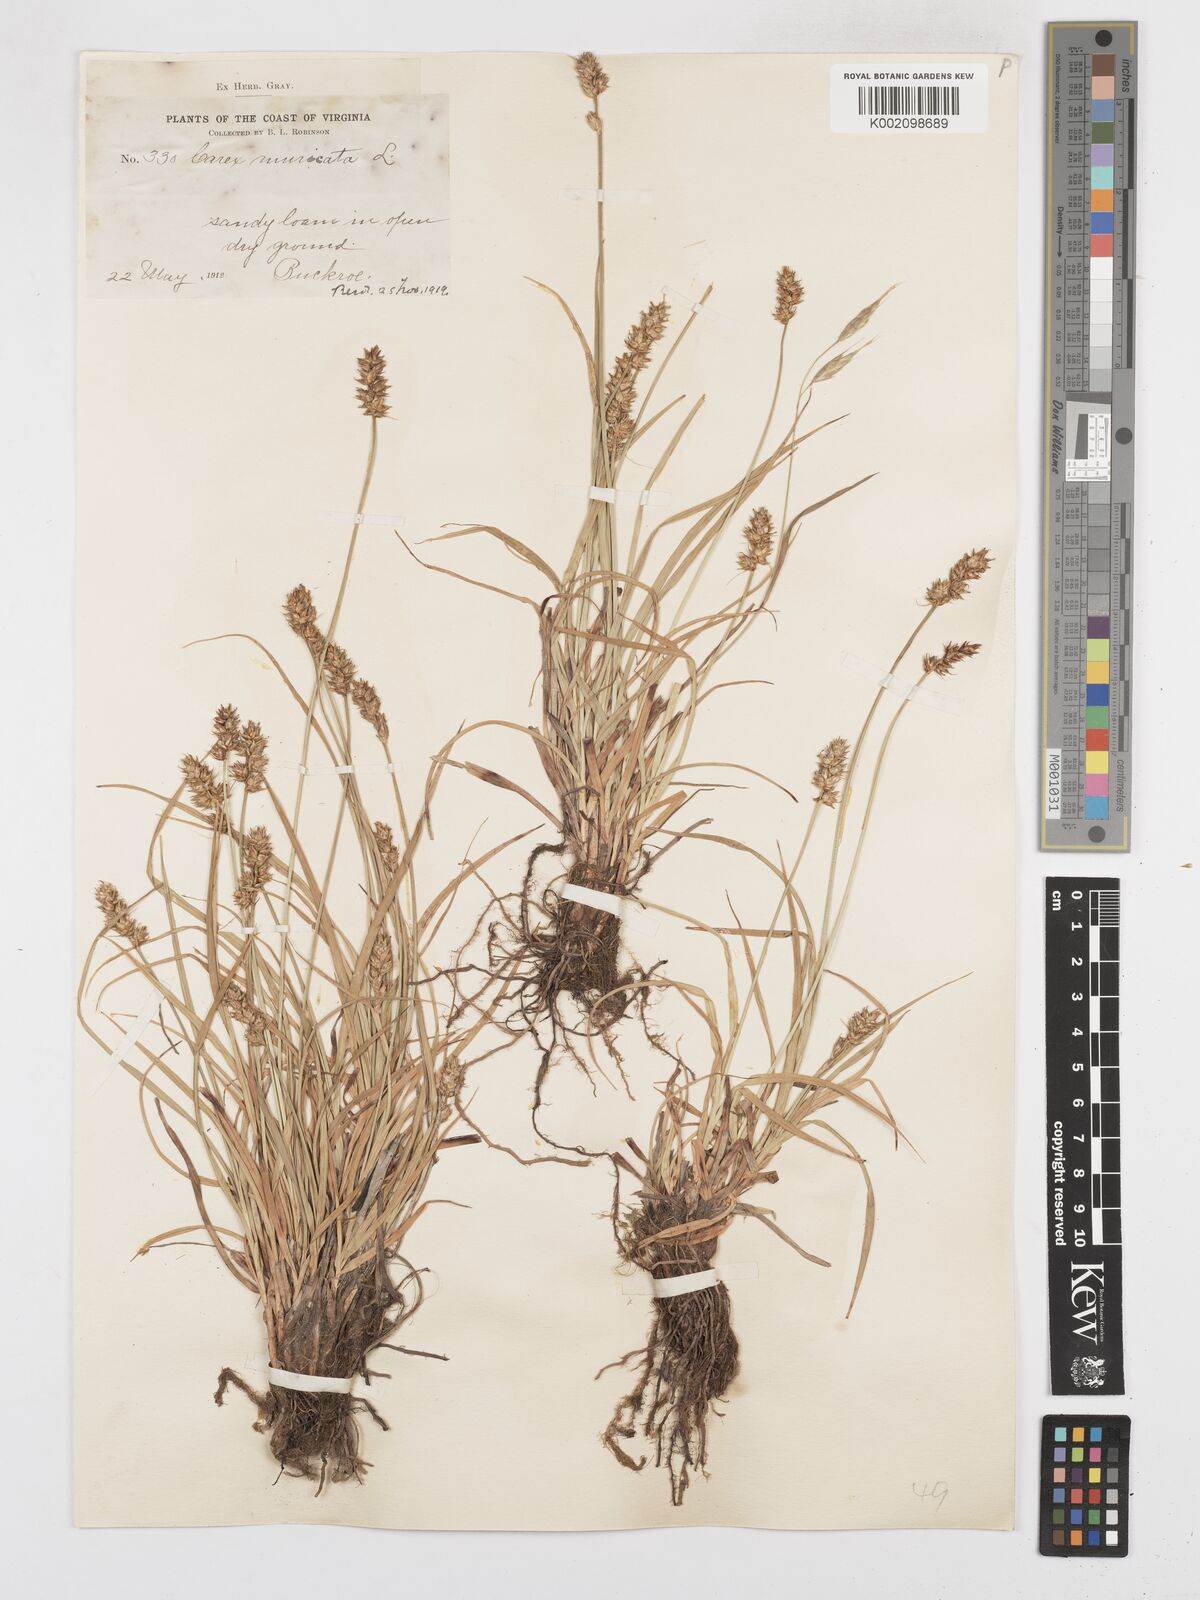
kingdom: Plantae
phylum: Tracheophyta
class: Liliopsida
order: Poales
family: Cyperaceae
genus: Carex
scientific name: Carex spicata
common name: Spiked sedge
